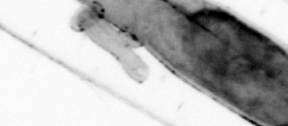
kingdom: Animalia
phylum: Chaetognatha
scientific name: Chaetognatha
